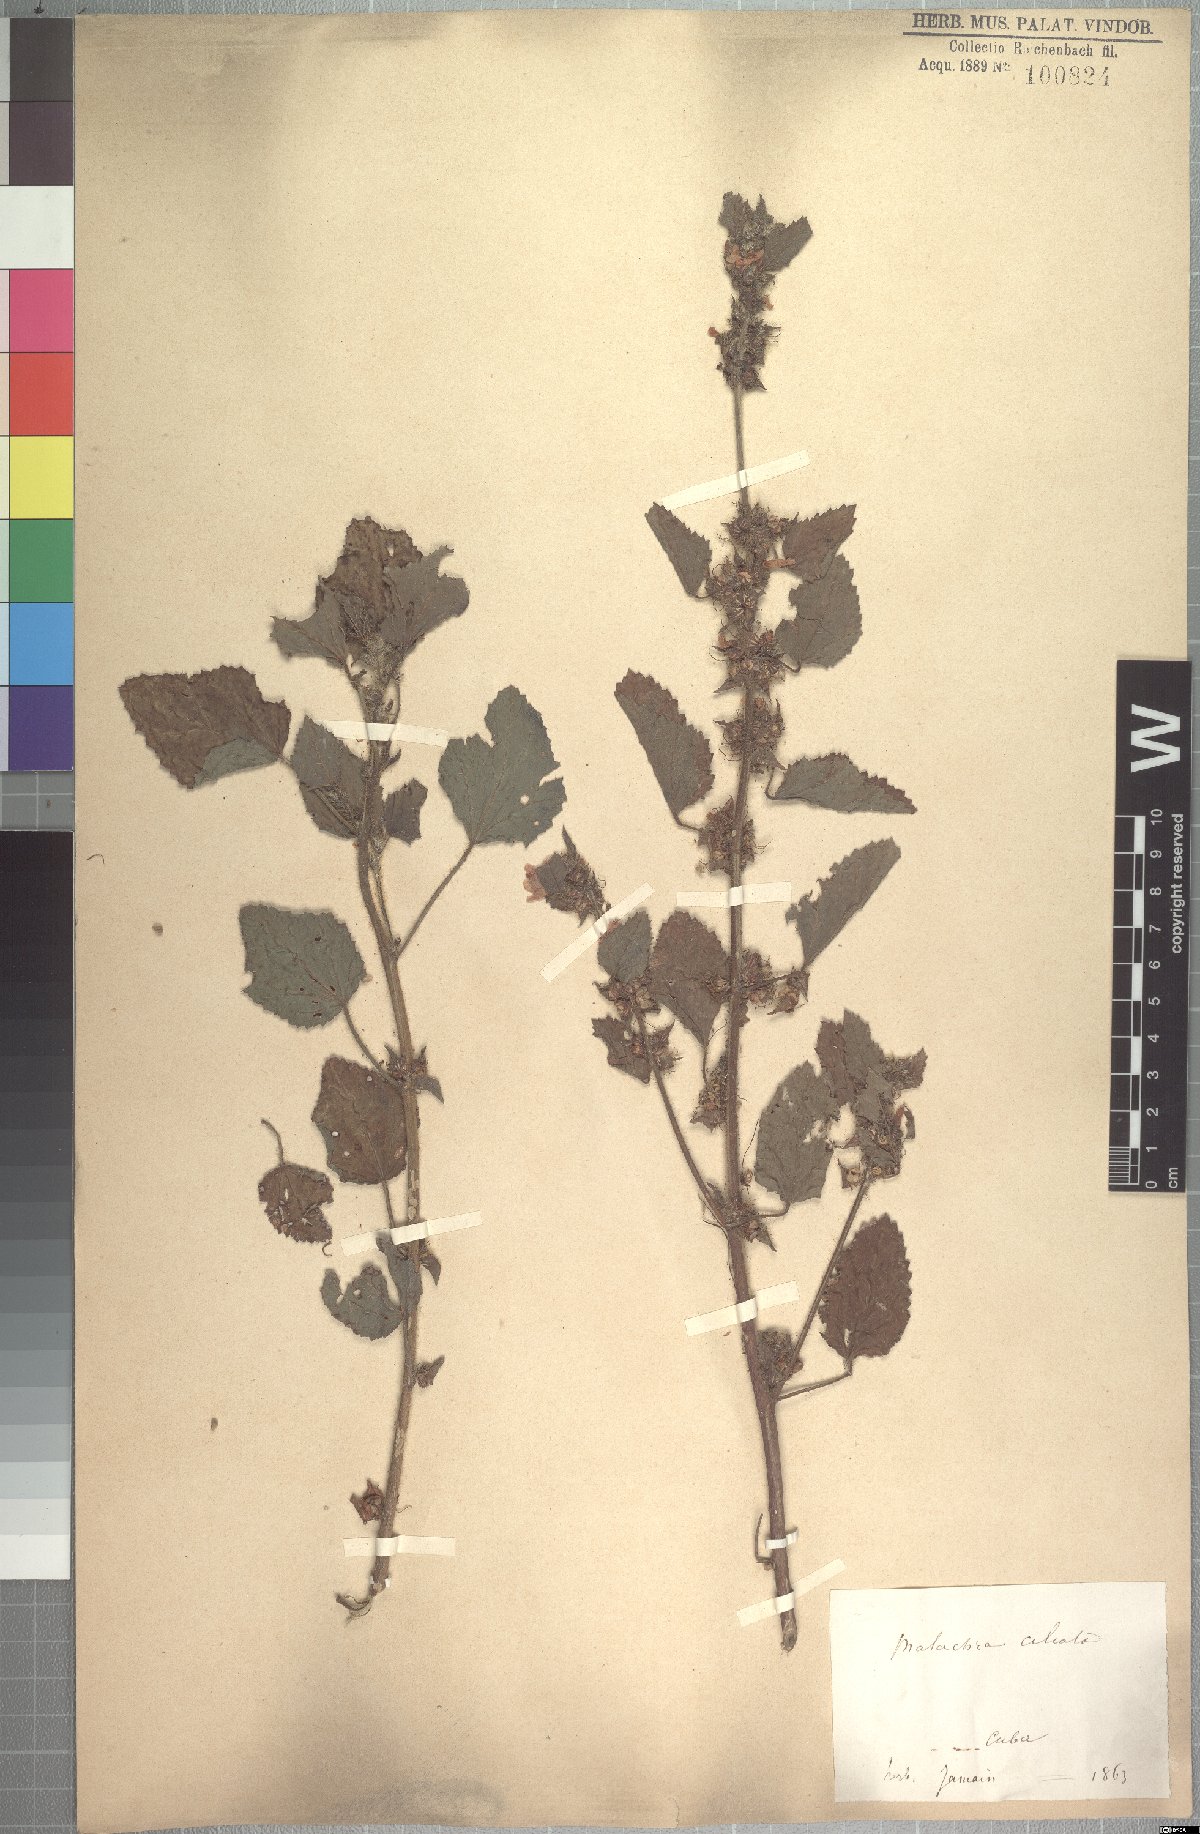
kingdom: Plantae
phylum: Tracheophyta
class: Magnoliopsida
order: Malvales
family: Malvaceae
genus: Malachra
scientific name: Malachra urens
